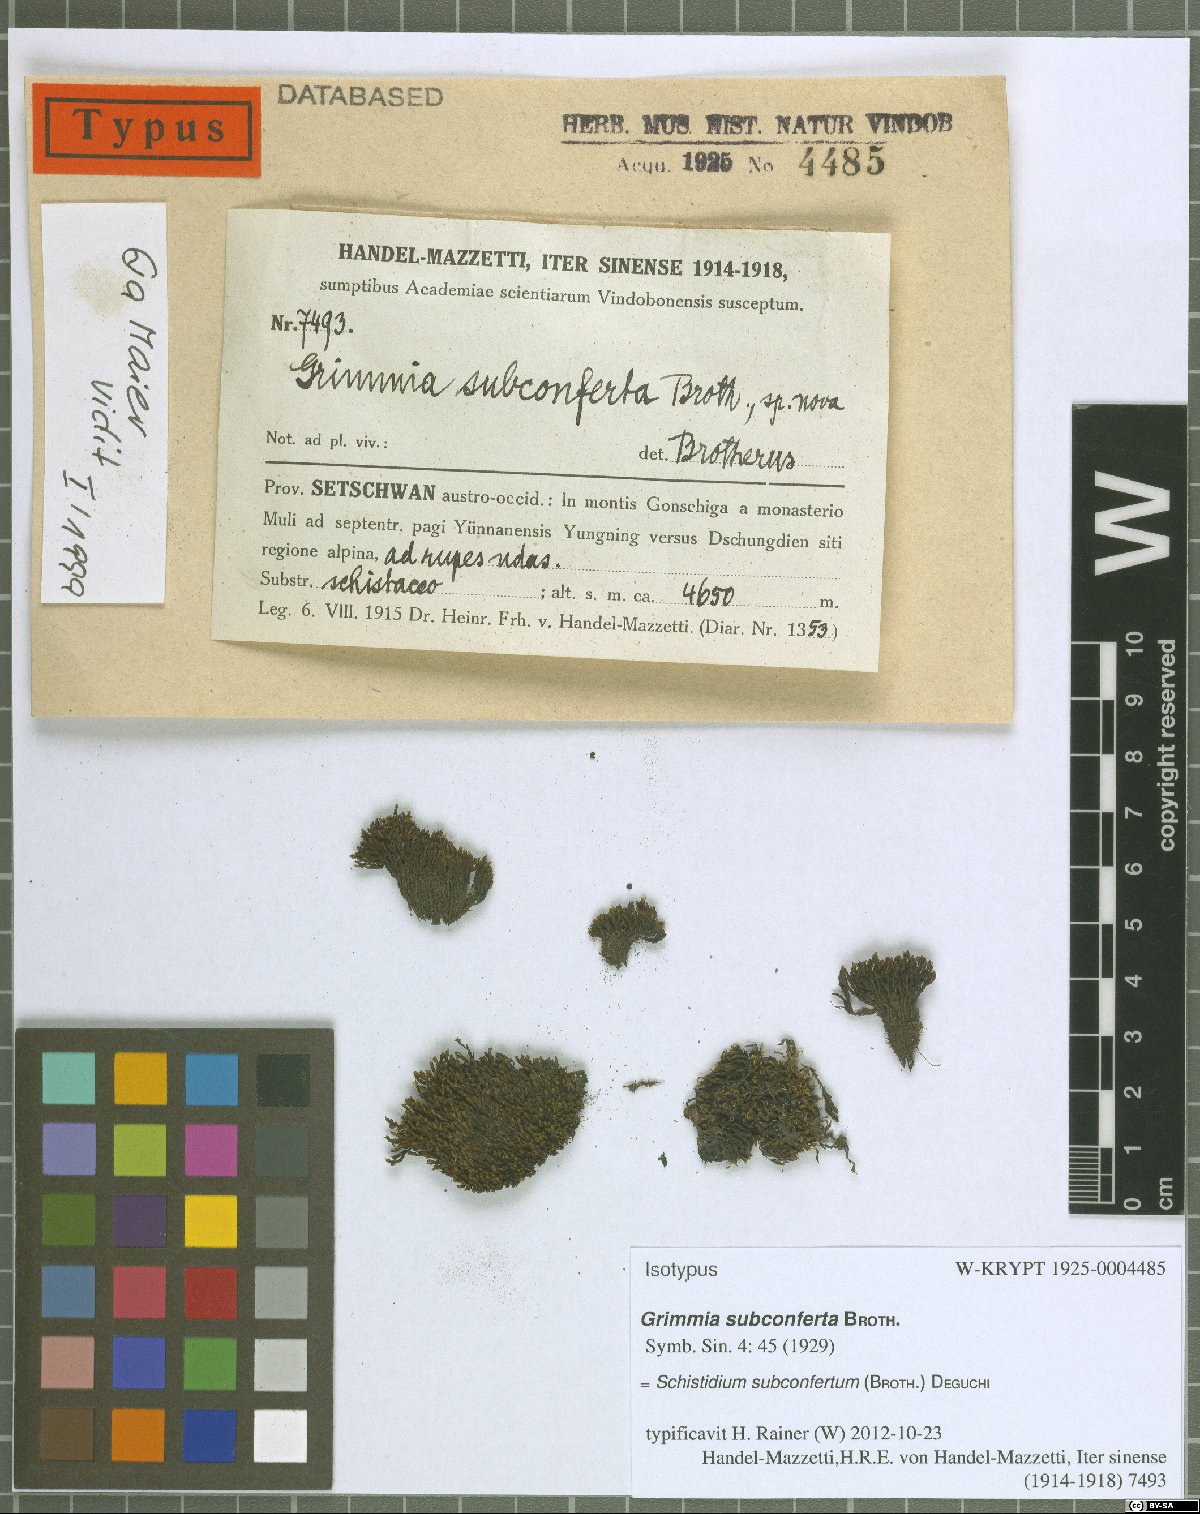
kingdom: Plantae
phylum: Bryophyta
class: Bryopsida
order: Grimmiales
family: Grimmiaceae
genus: Schistidium
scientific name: Schistidium subconfertum
